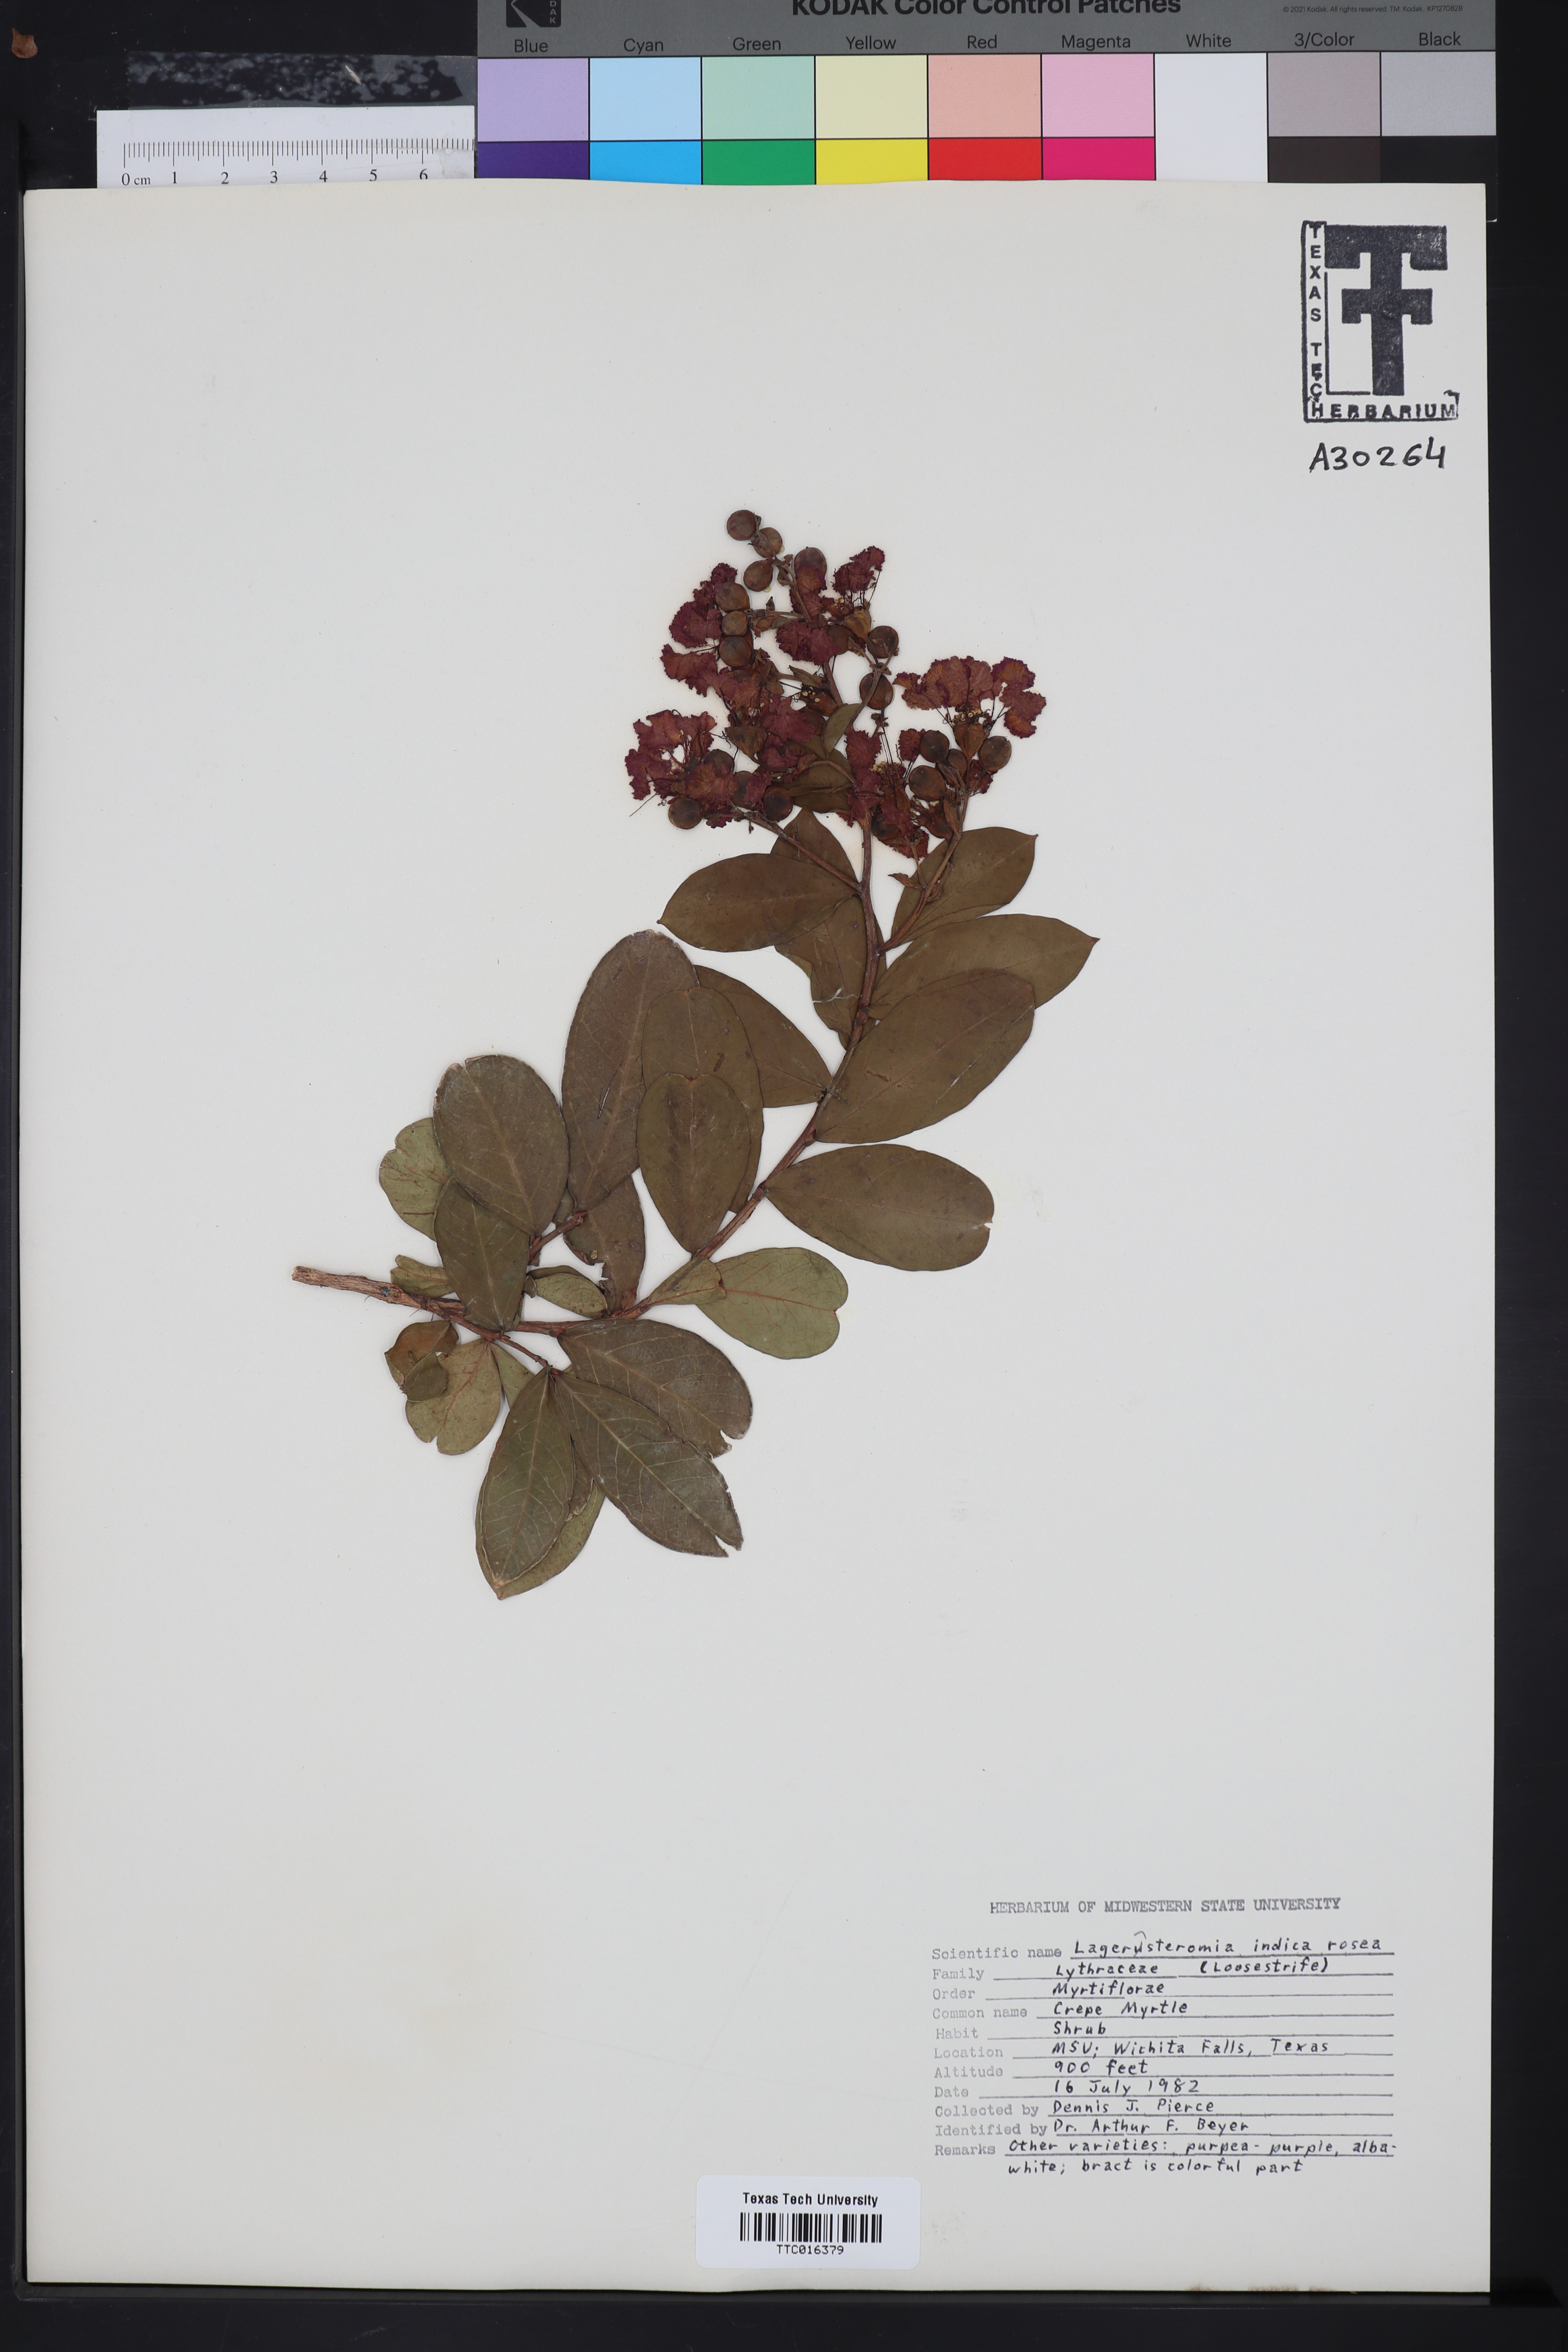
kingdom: Plantae
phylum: Tracheophyta
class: Magnoliopsida
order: Myrtales
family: Lythraceae
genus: Lagerstroemia
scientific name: Lagerstroemia indica
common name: Crape-myrtle
